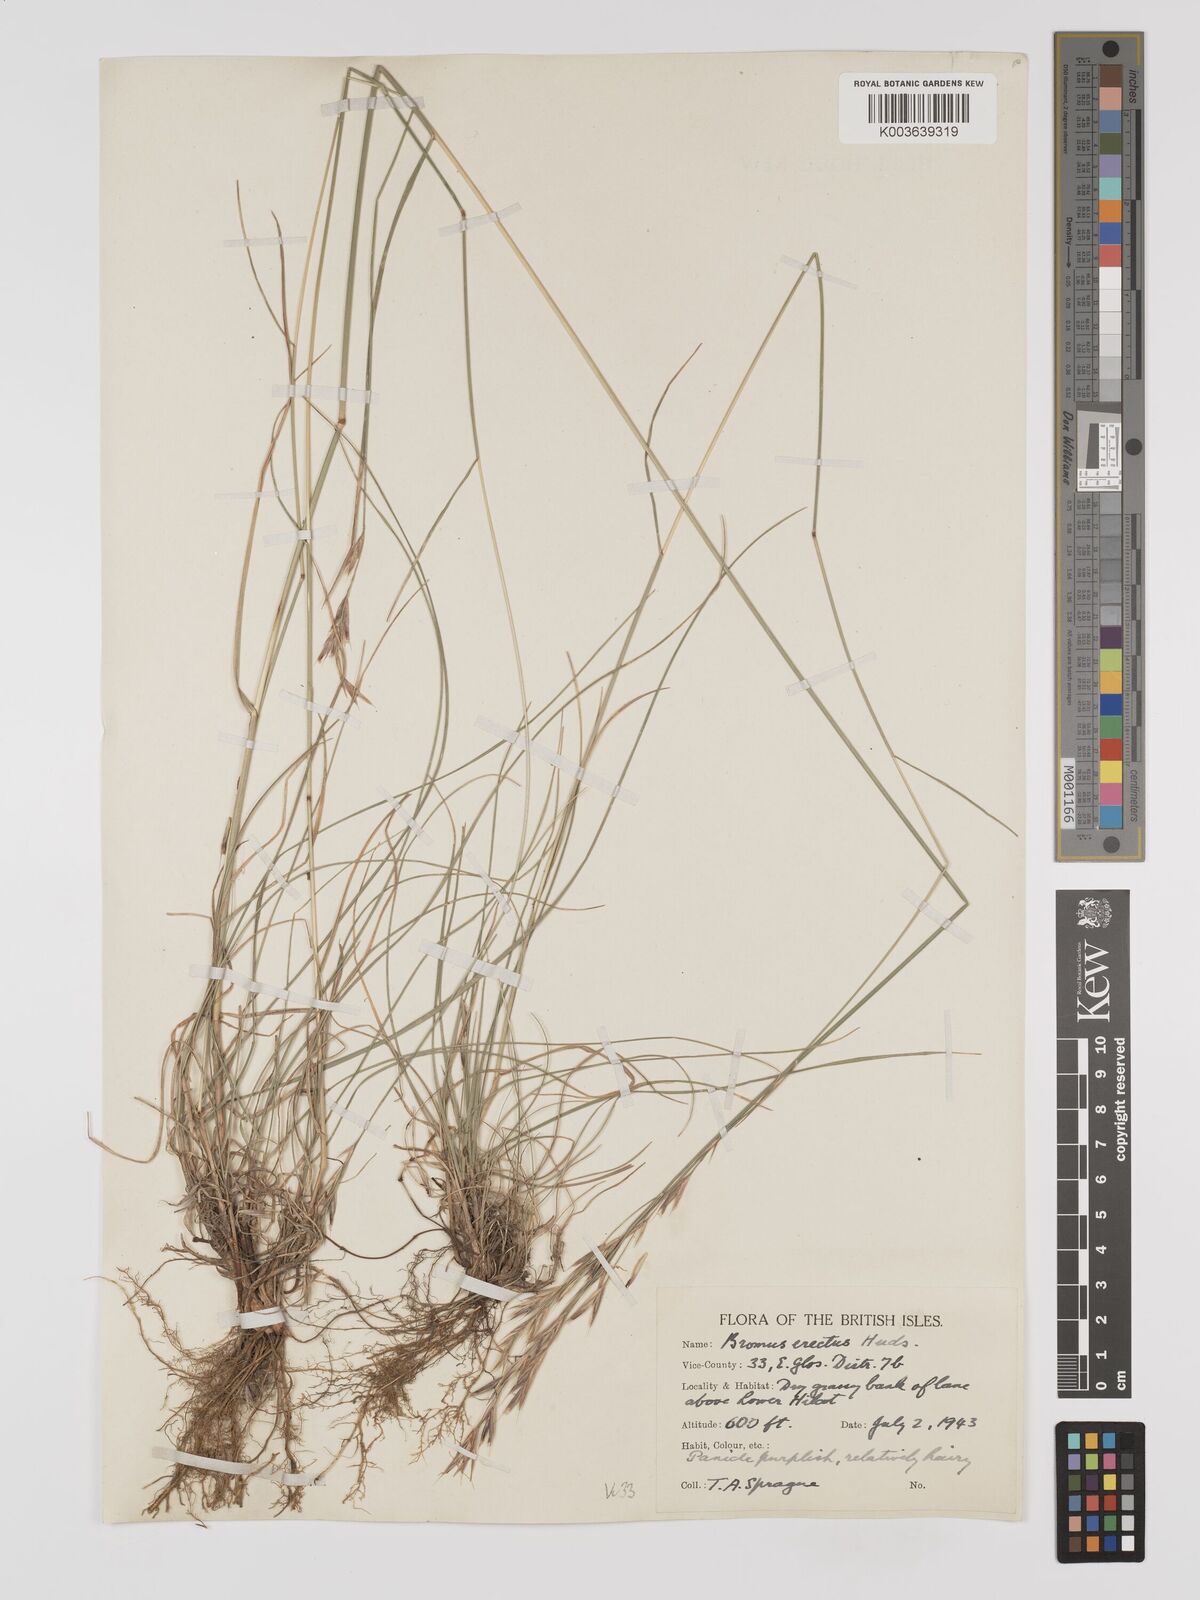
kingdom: Plantae
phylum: Tracheophyta
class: Liliopsida
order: Poales
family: Poaceae
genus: Bromus
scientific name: Bromus erectus
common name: Erect brome
